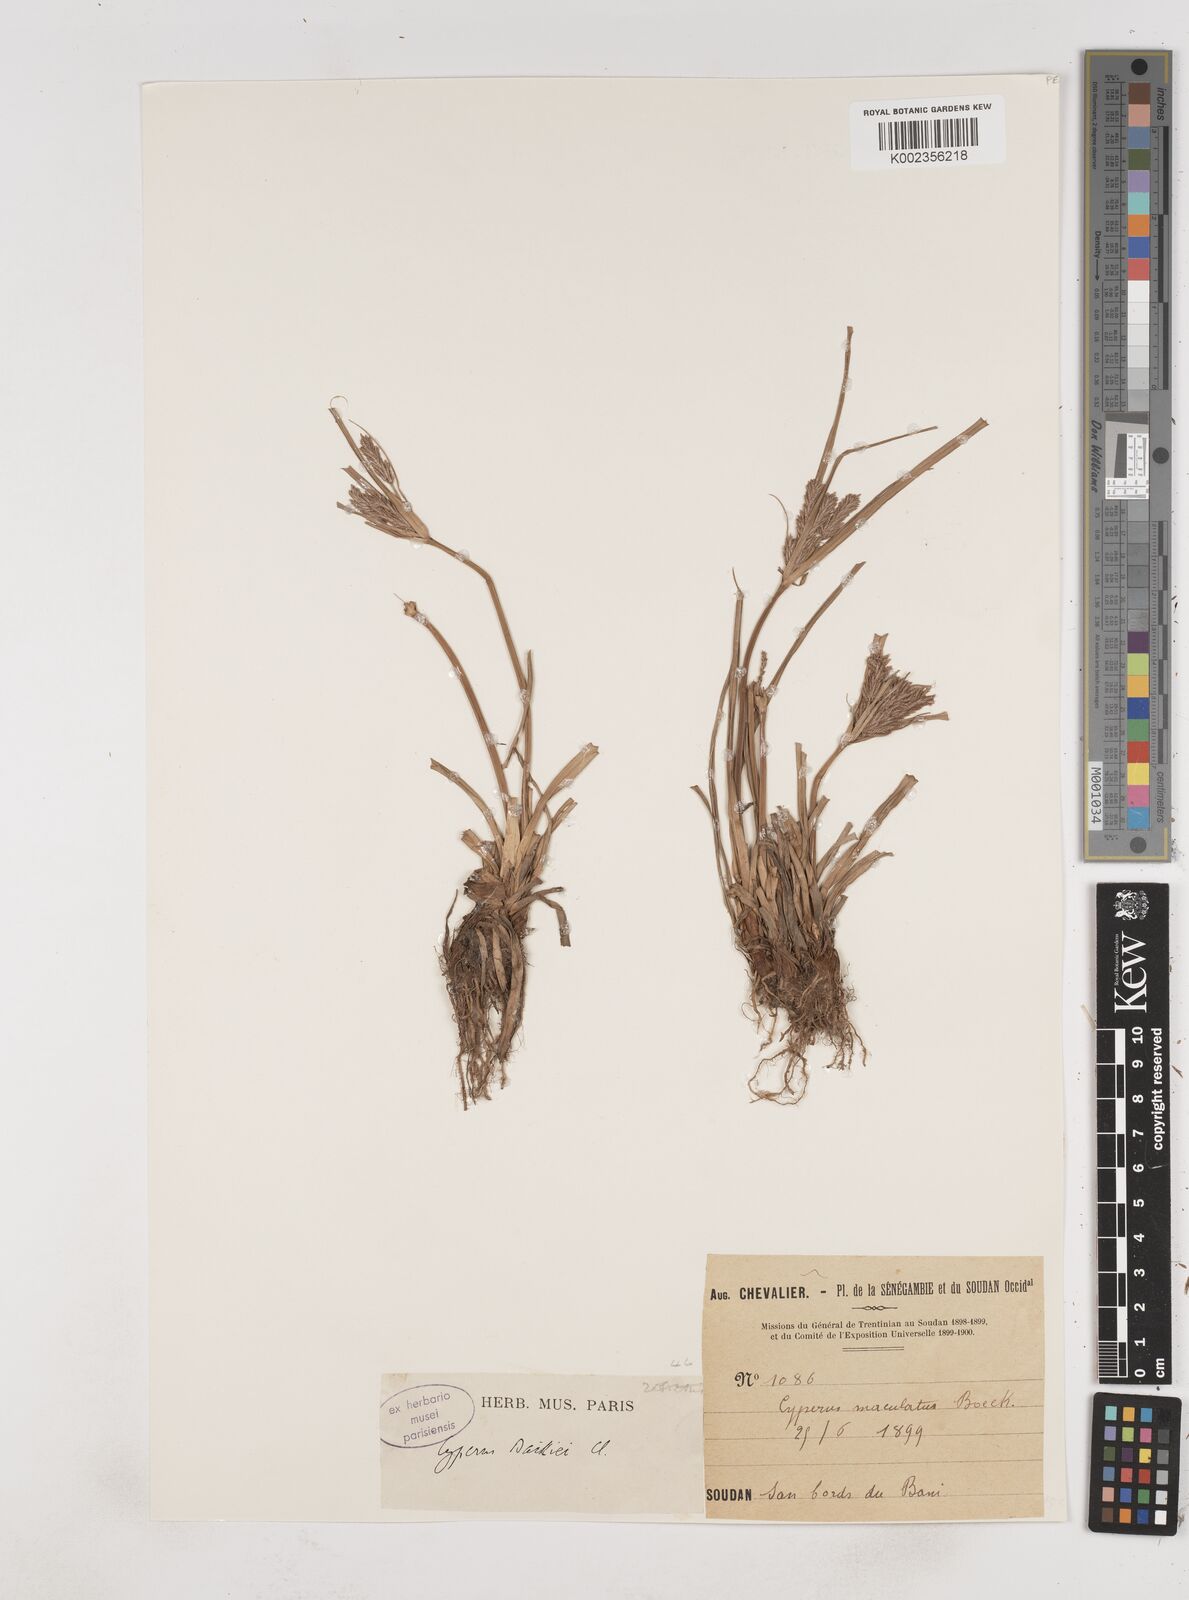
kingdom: Plantae
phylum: Tracheophyta
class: Liliopsida
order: Poales
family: Cyperaceae
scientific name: Cyperaceae
